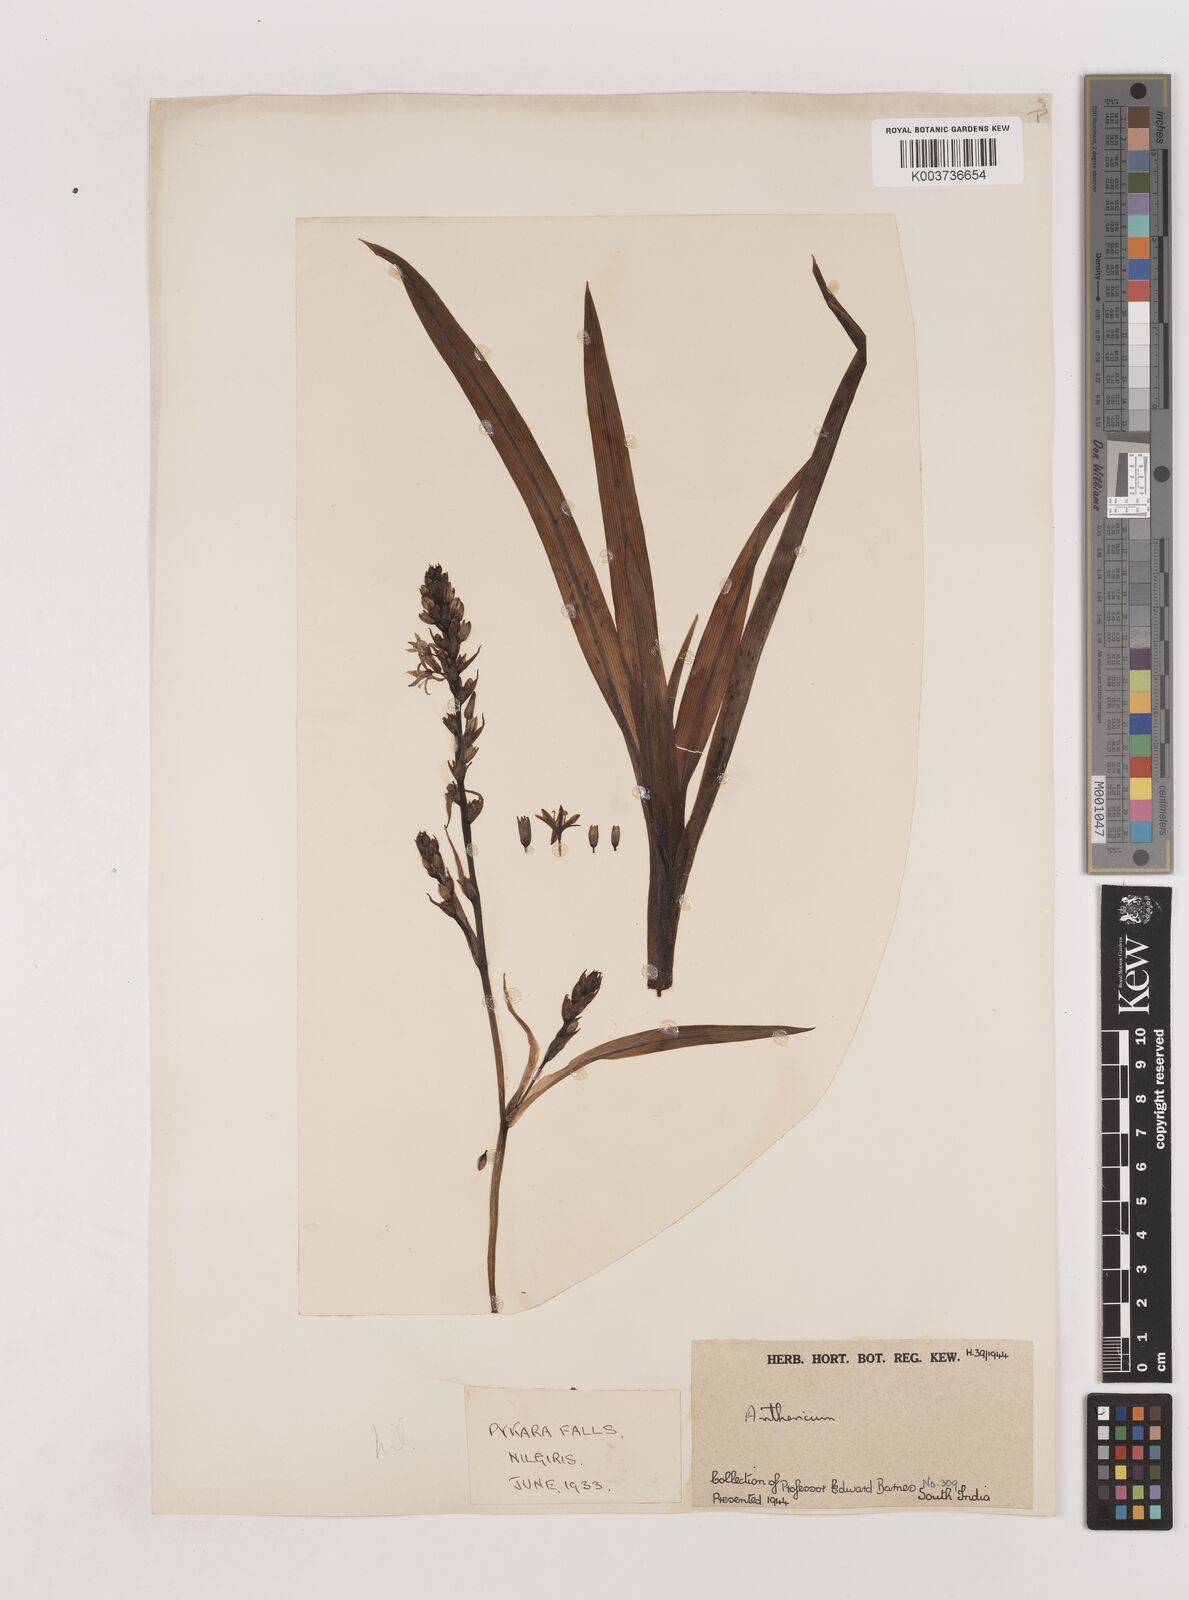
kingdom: Plantae
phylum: Tracheophyta
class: Liliopsida
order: Asparagales
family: Asparagaceae
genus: Chlorophytum
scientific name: Chlorophytum
